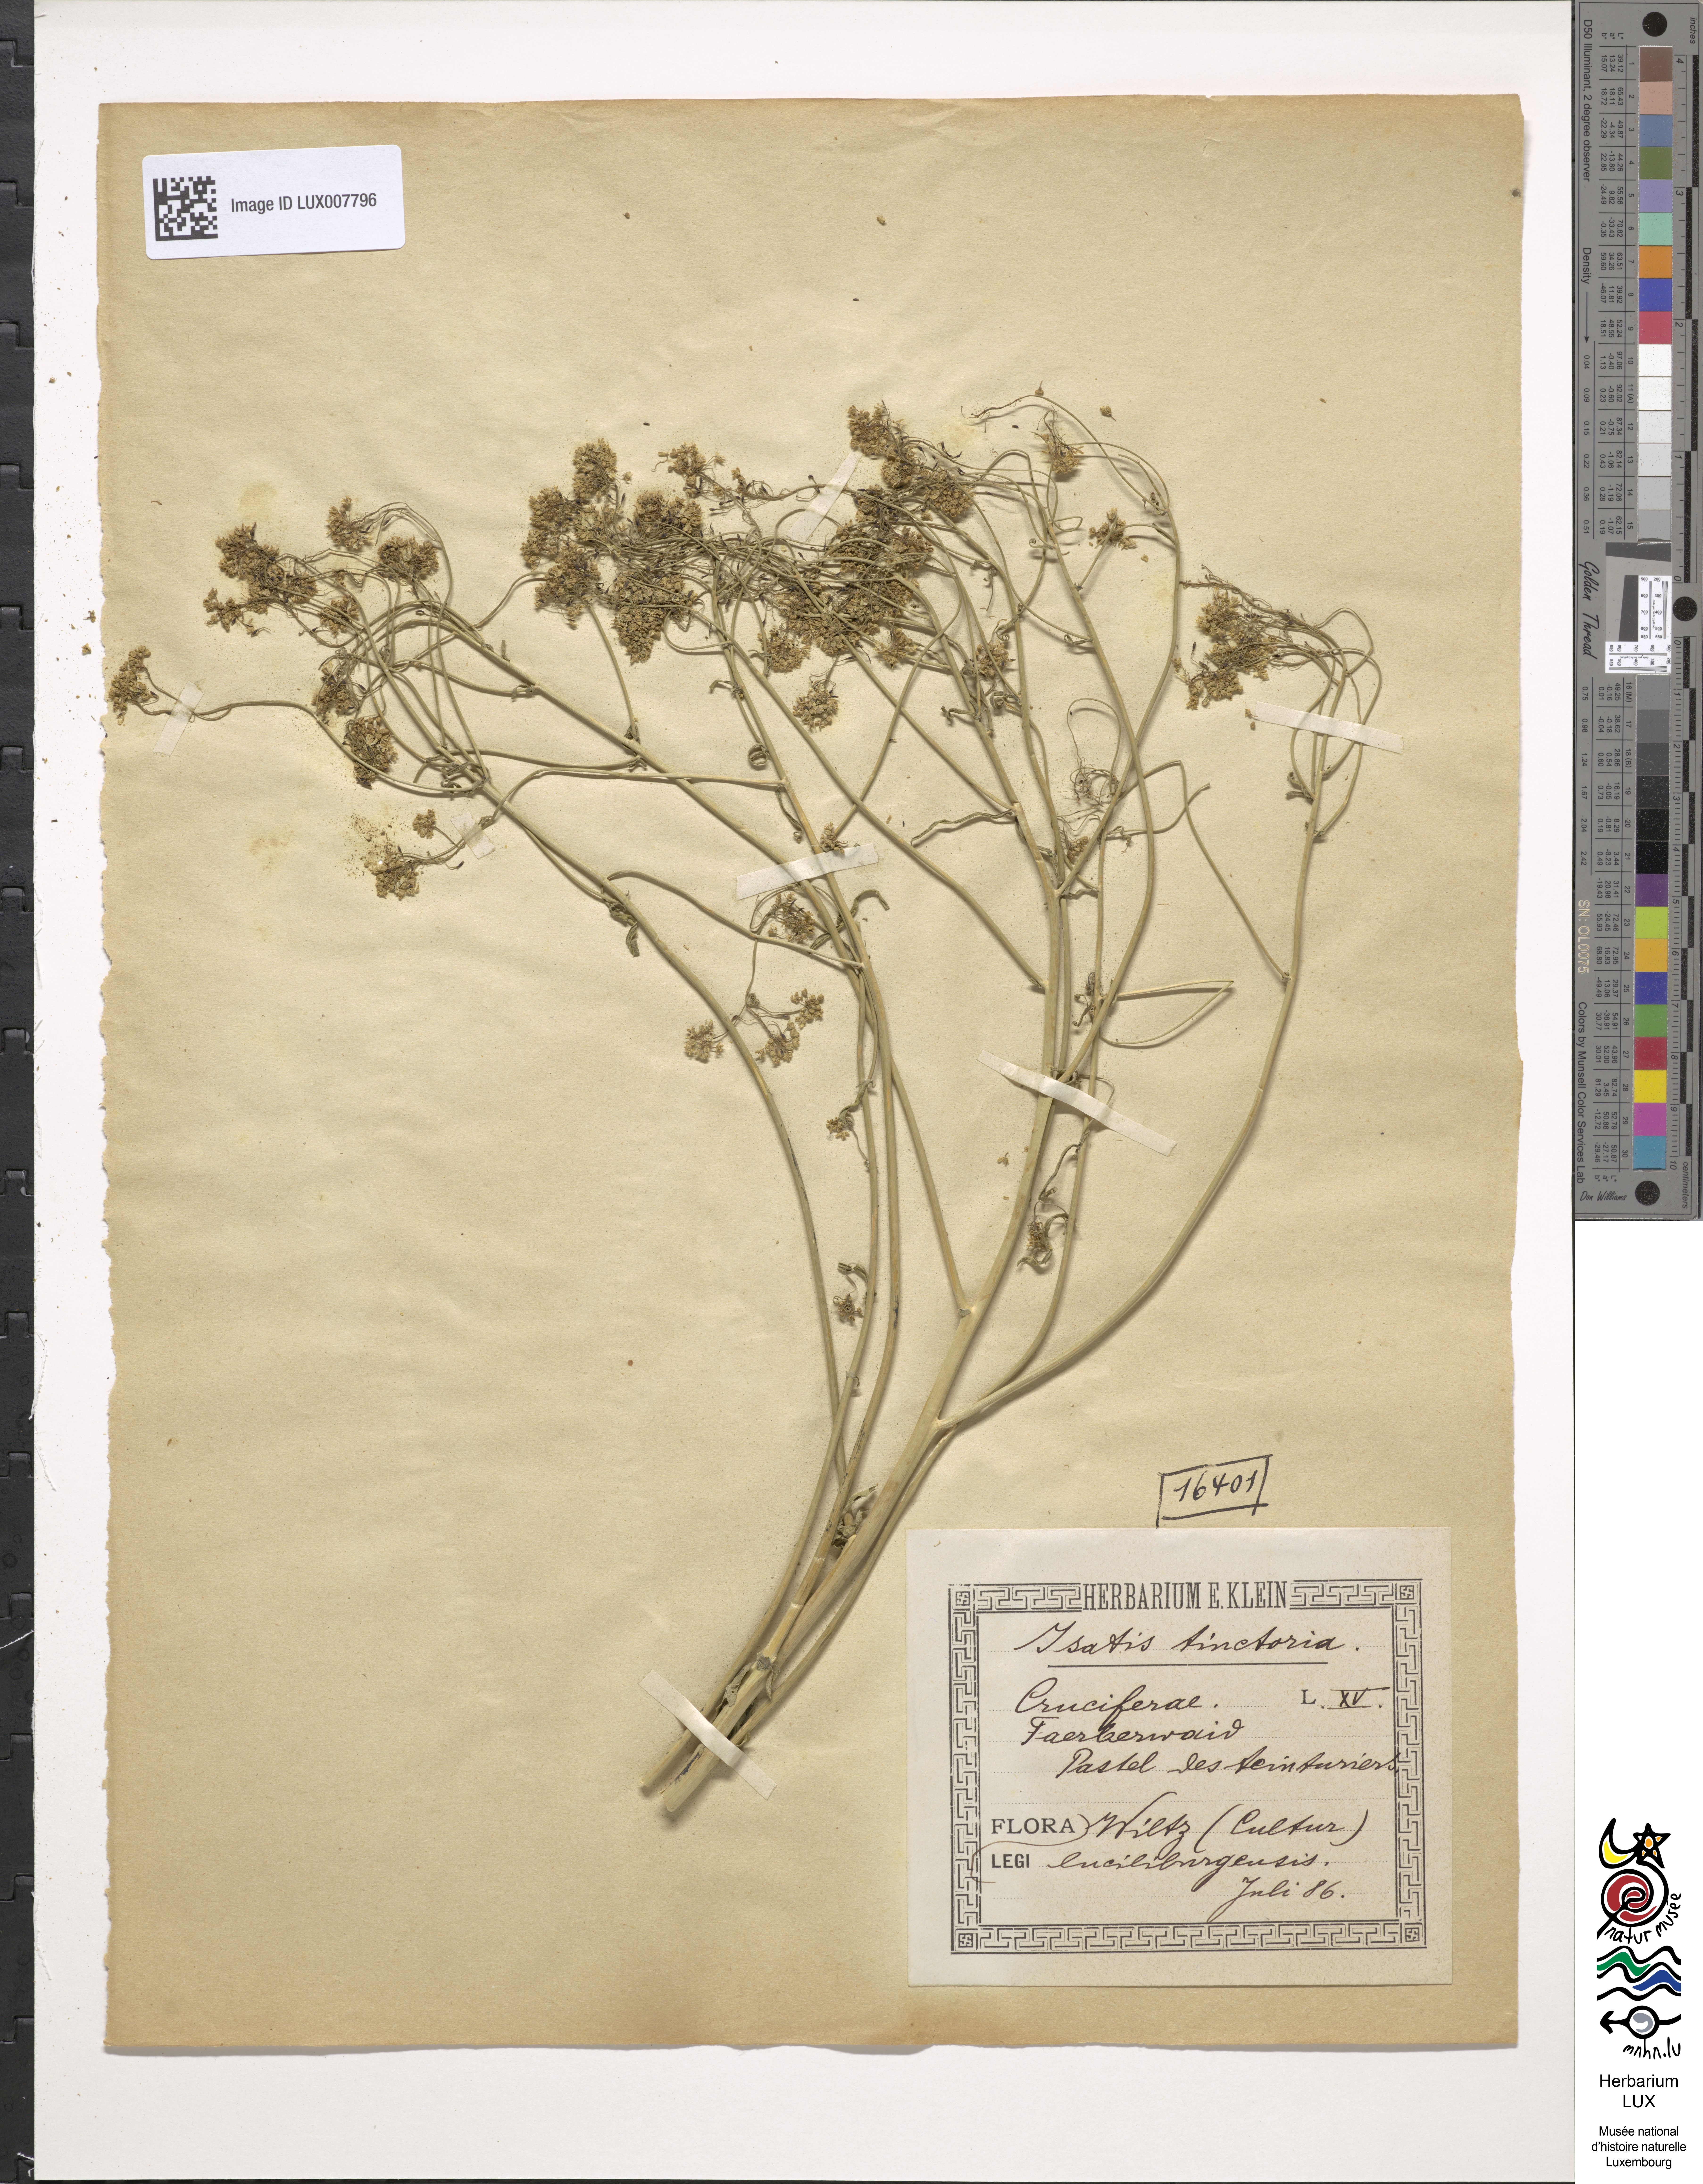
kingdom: Plantae
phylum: Tracheophyta
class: Magnoliopsida
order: Brassicales
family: Brassicaceae
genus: Isatis
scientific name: Isatis tinctoria
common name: Woad
